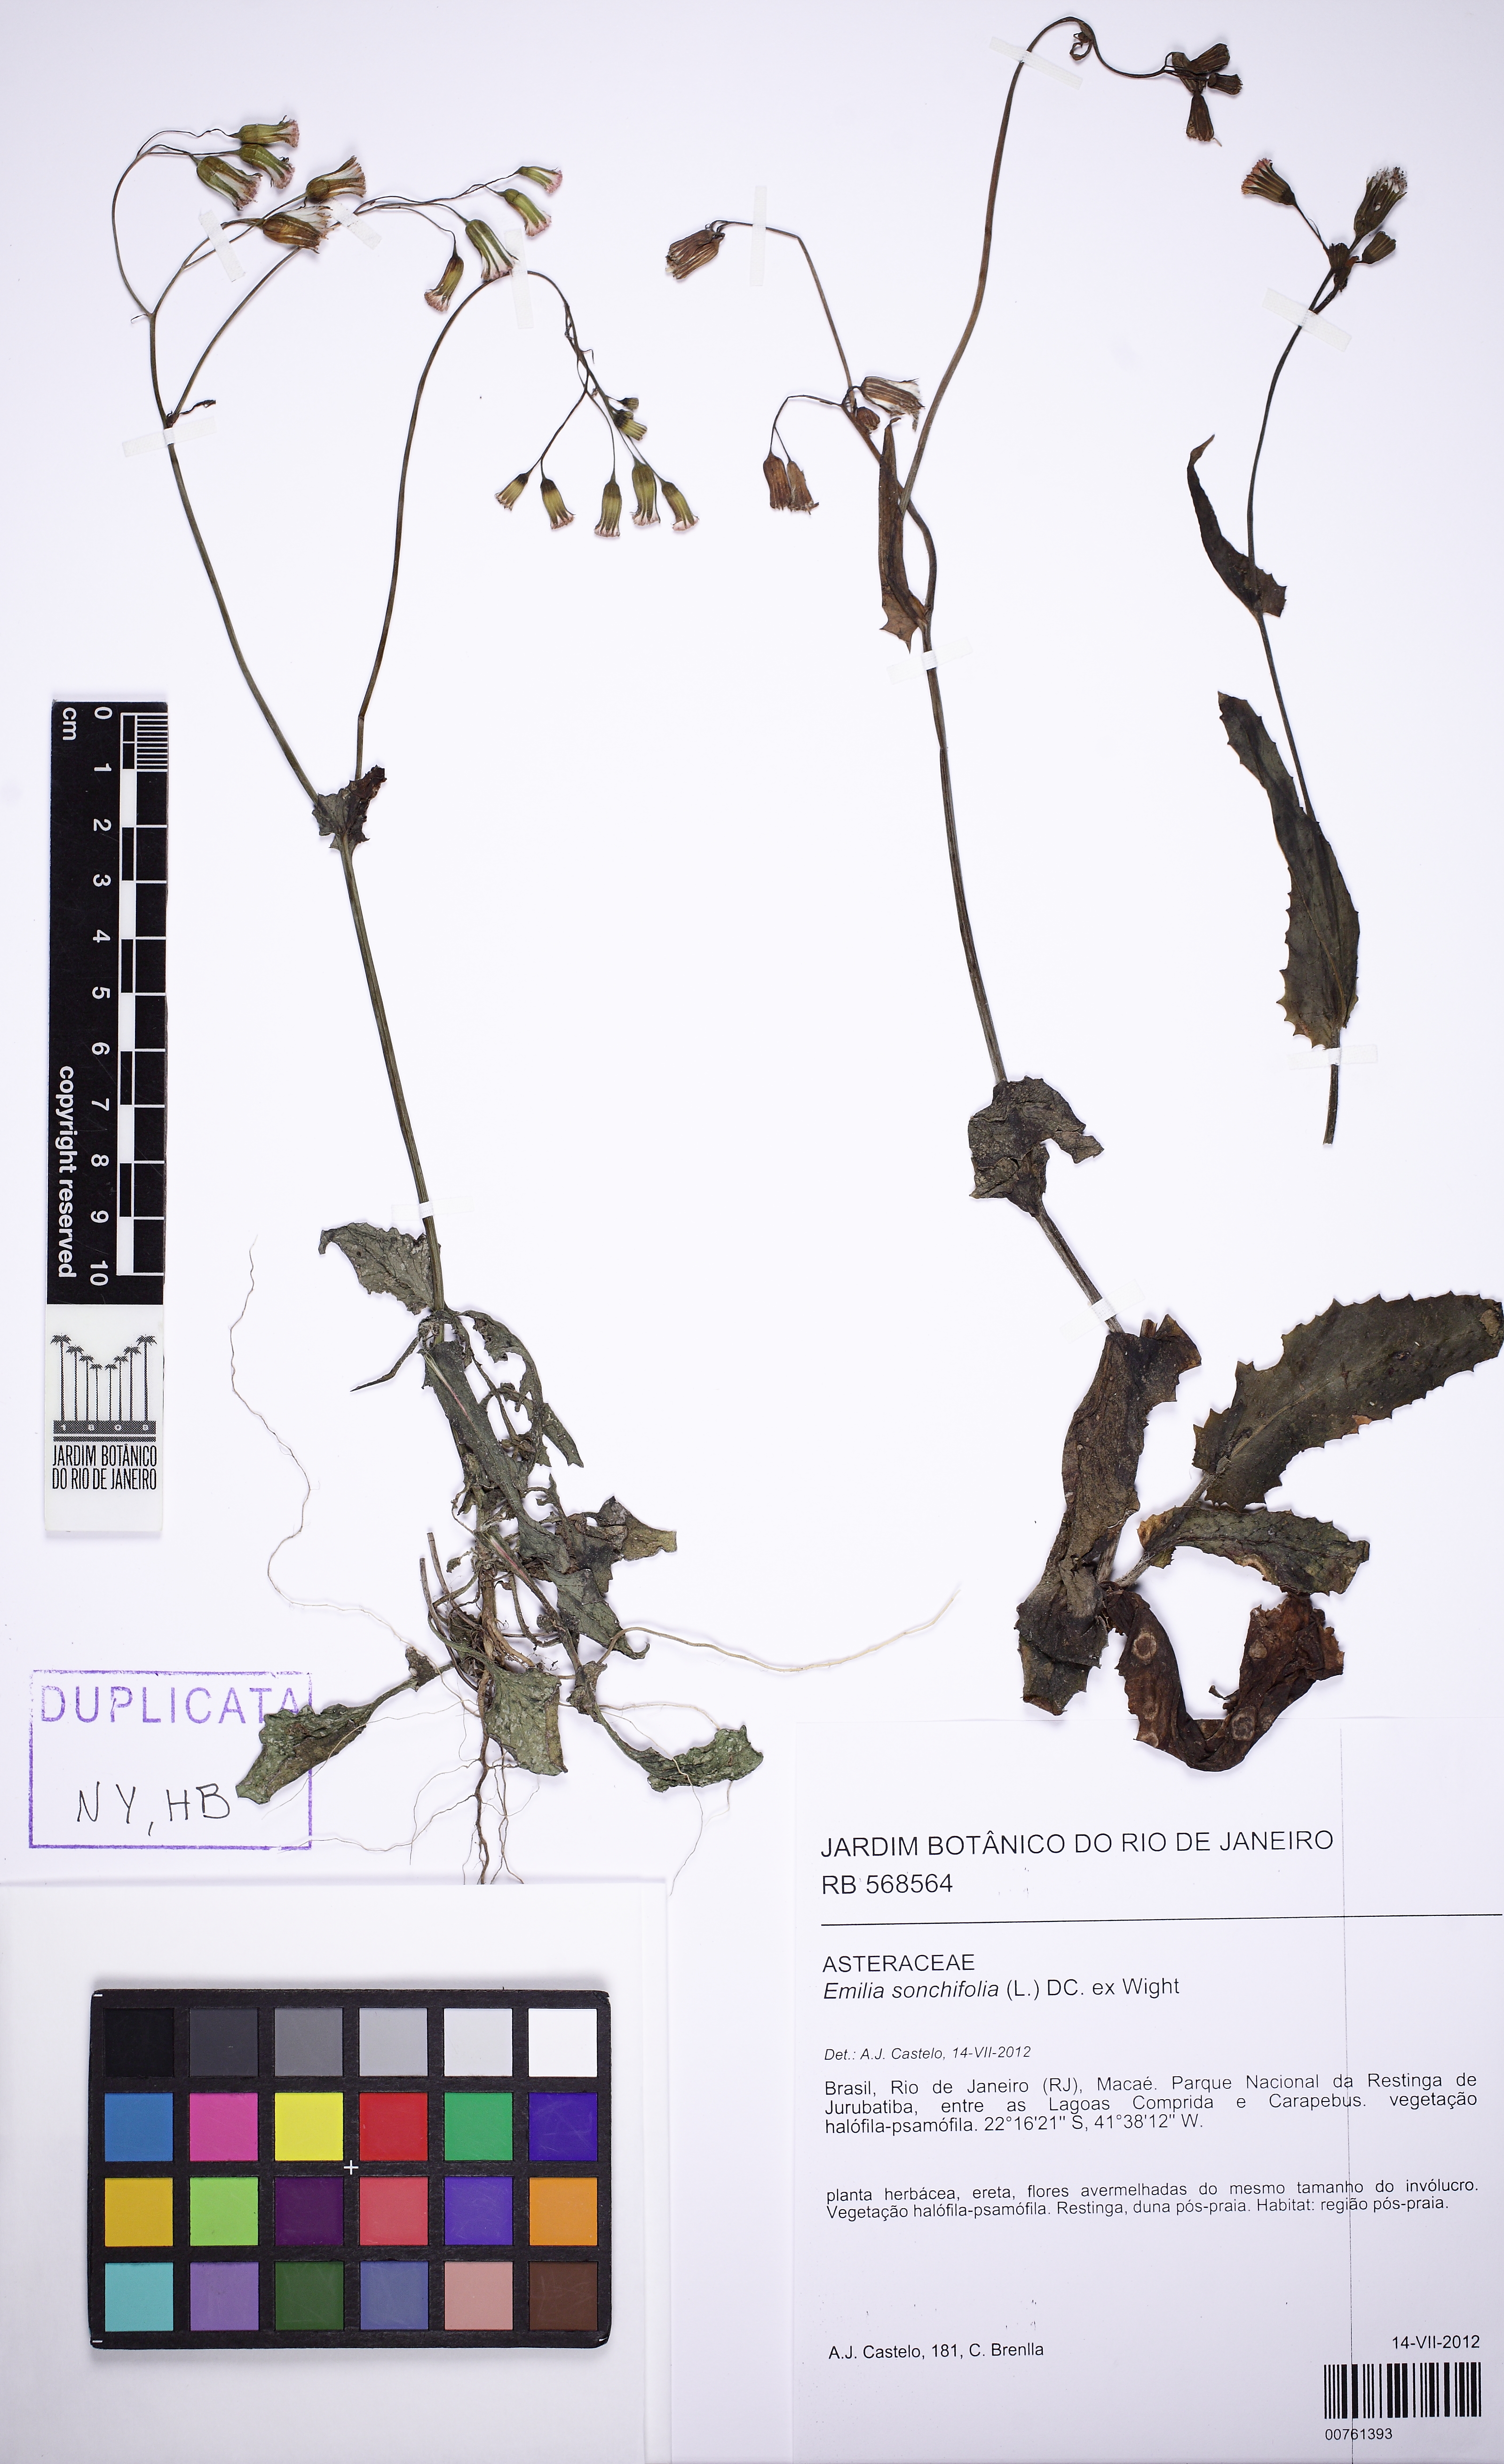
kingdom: Plantae
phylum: Tracheophyta
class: Magnoliopsida
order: Asterales
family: Asteraceae
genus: Emilia
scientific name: Emilia sonchifolia
